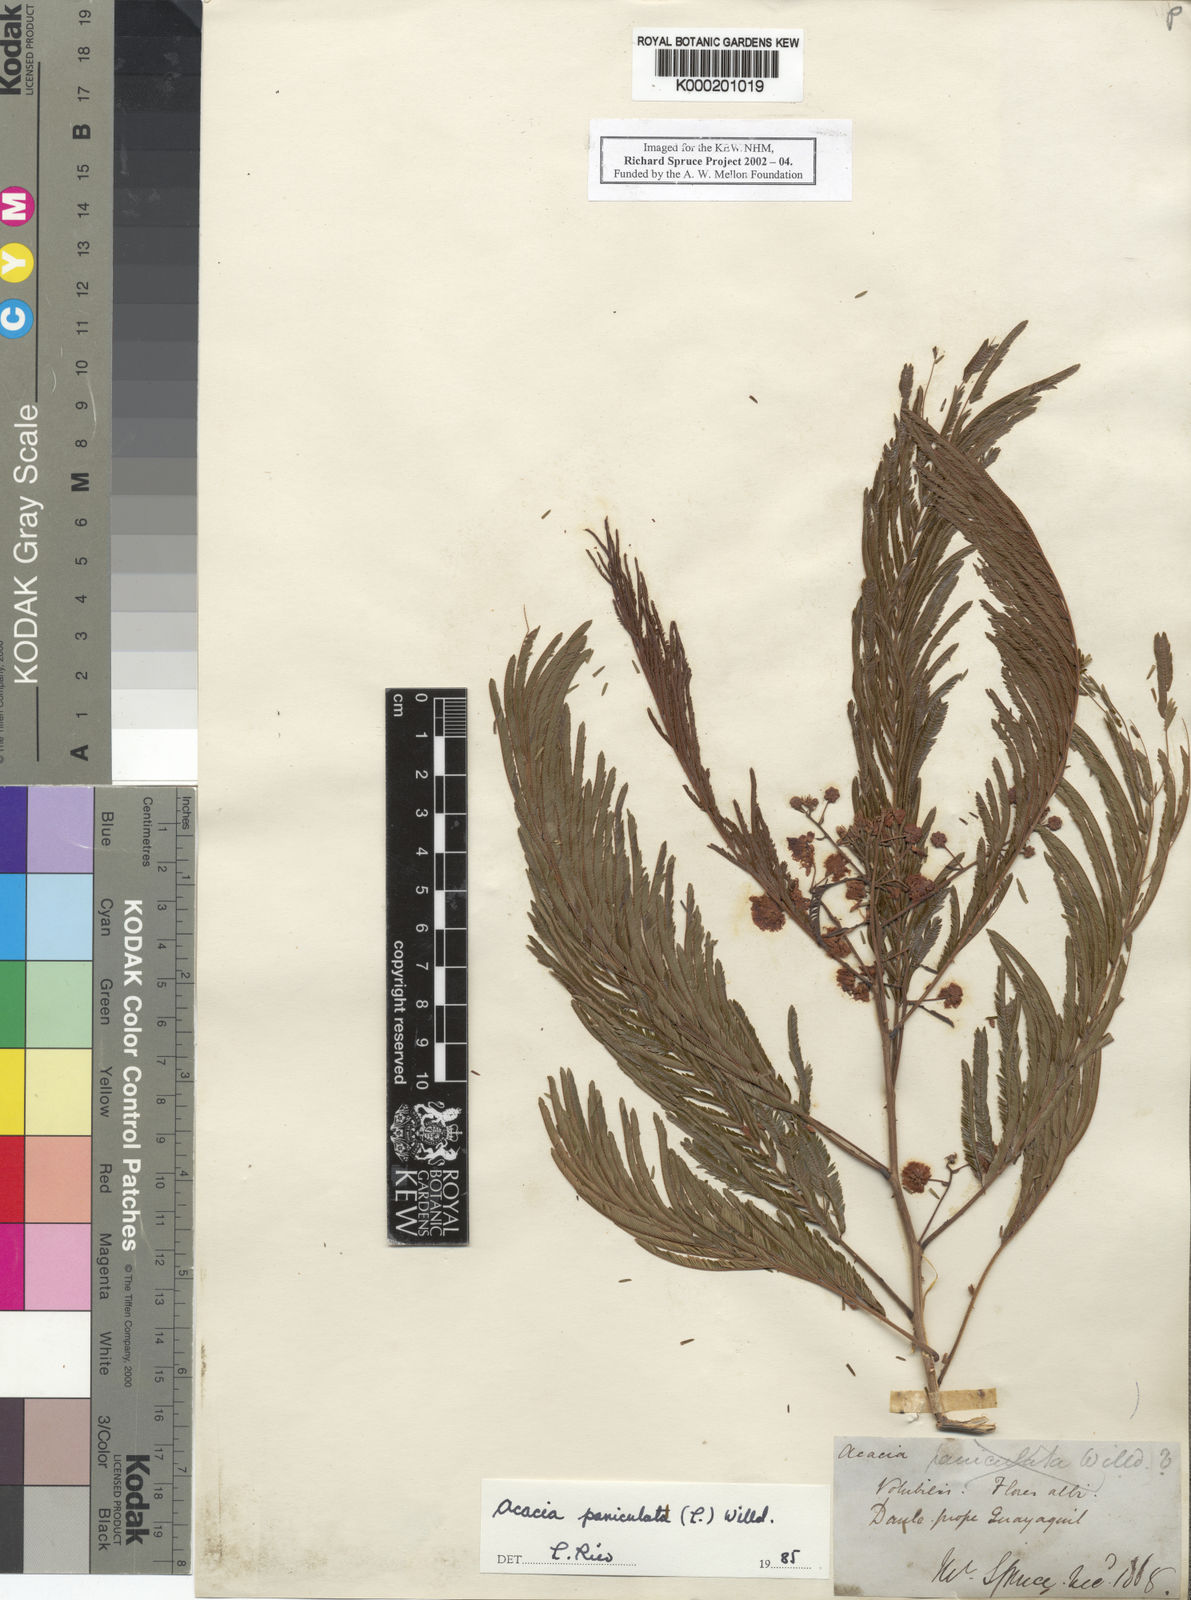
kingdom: Plantae
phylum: Tracheophyta
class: Magnoliopsida
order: Fabales
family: Fabaceae
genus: Senegalia
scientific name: Senegalia paniculata
